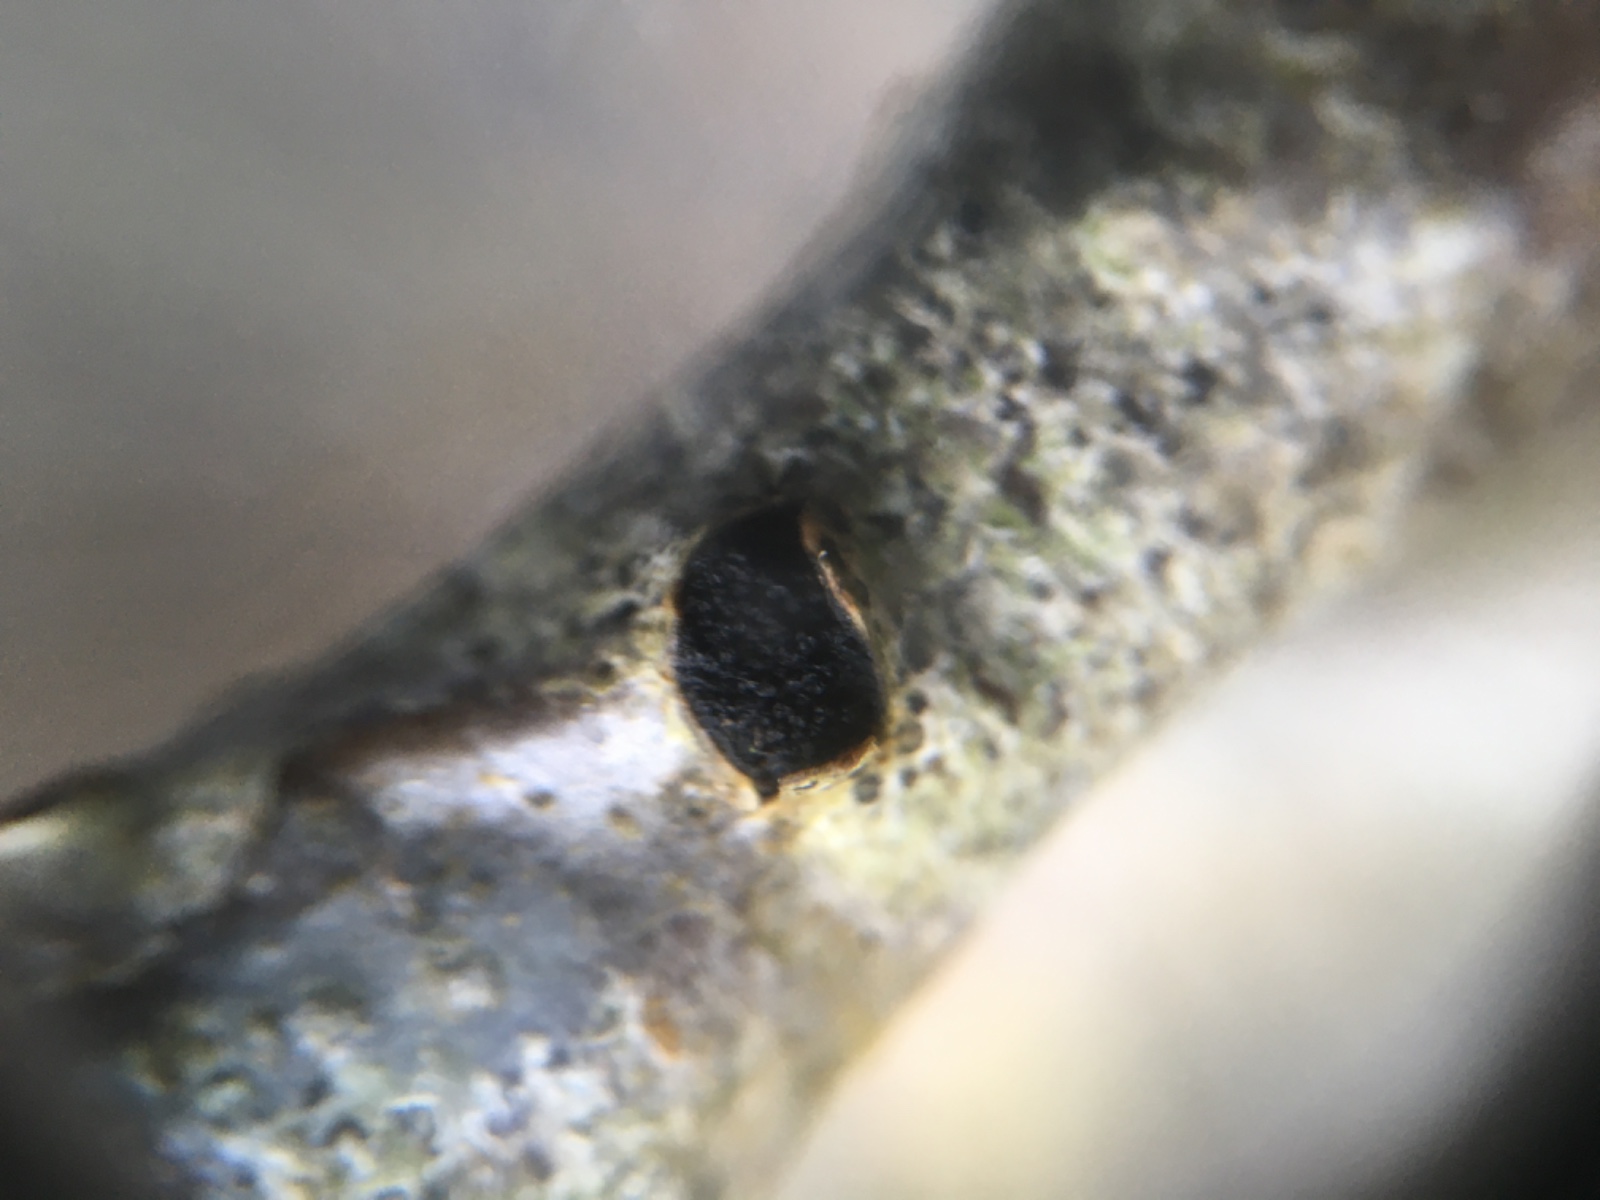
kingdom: Fungi
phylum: Ascomycota
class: Sordariomycetes
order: Xylariales
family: Diatrypaceae
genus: Eutypella
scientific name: Eutypella sorbi
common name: rønne-kulskorpe
